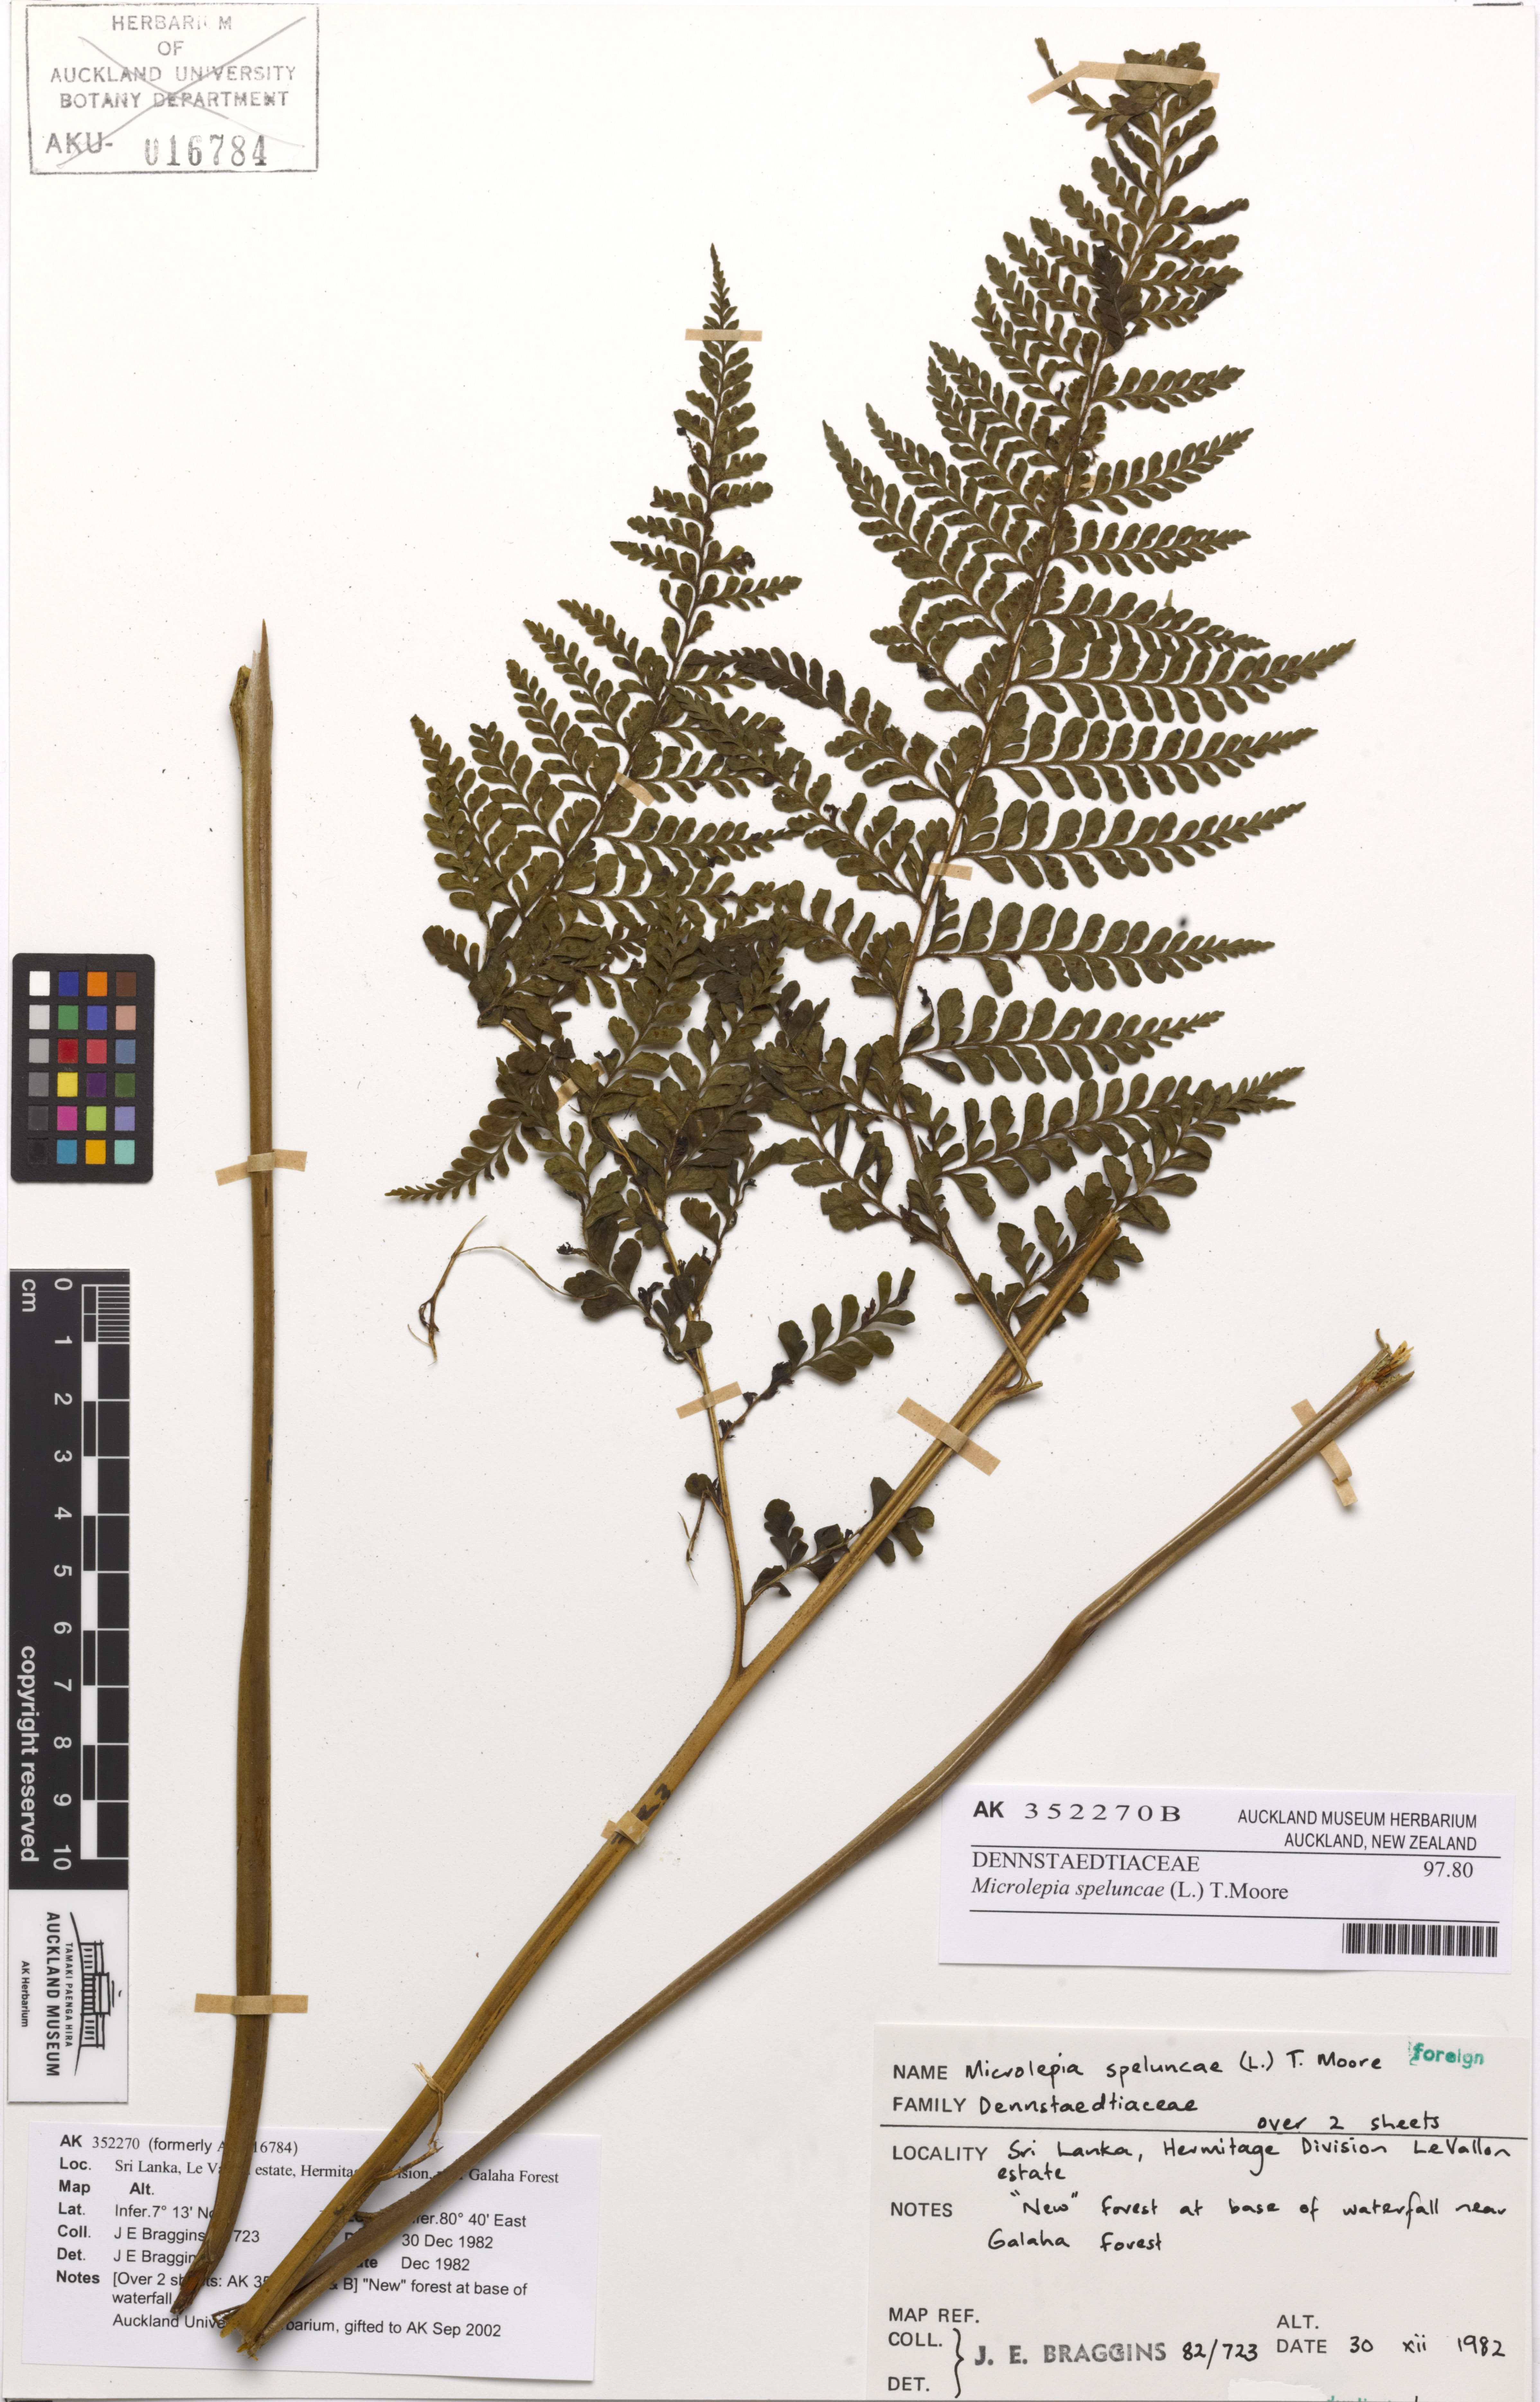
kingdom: Plantae
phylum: Tracheophyta
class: Polypodiopsida
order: Polypodiales
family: Dennstaedtiaceae
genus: Microlepia
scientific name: Microlepia speluncae
